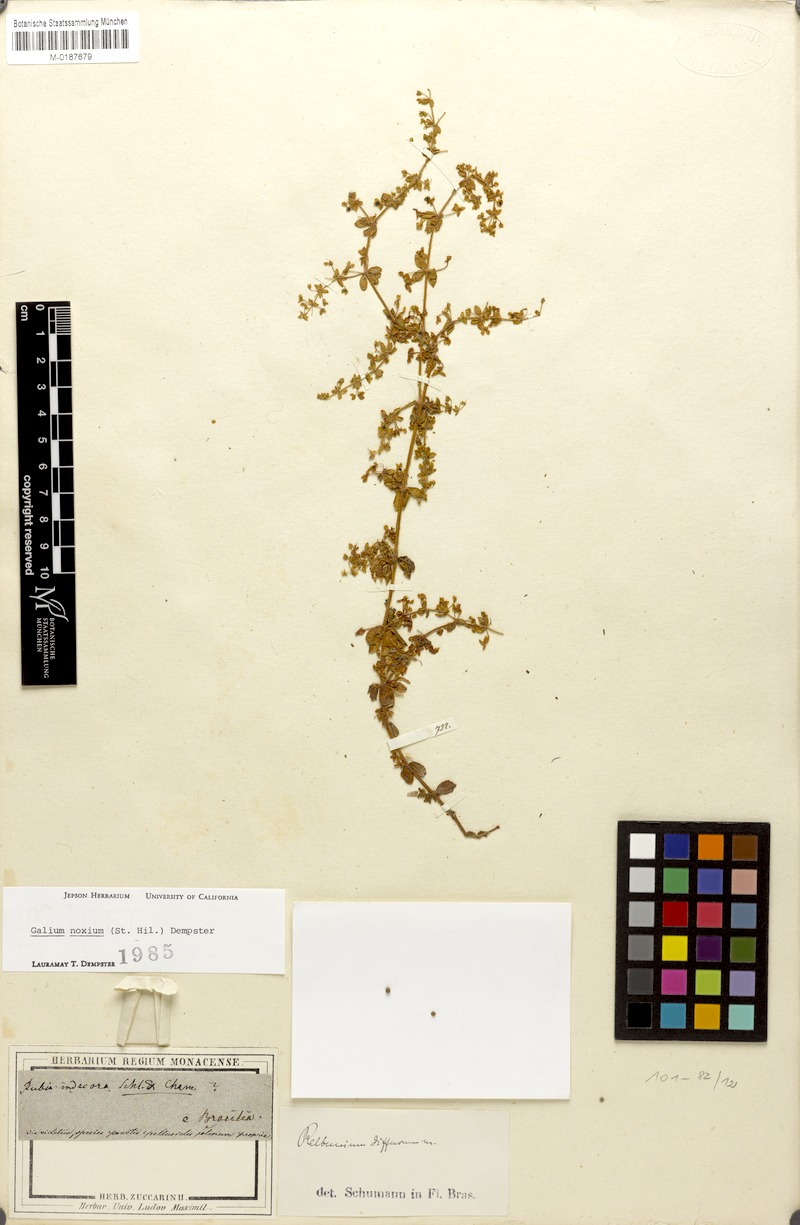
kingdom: Plantae
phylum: Tracheophyta
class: Magnoliopsida
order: Gentianales
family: Rubiaceae
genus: Galium
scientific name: Galium noxium
